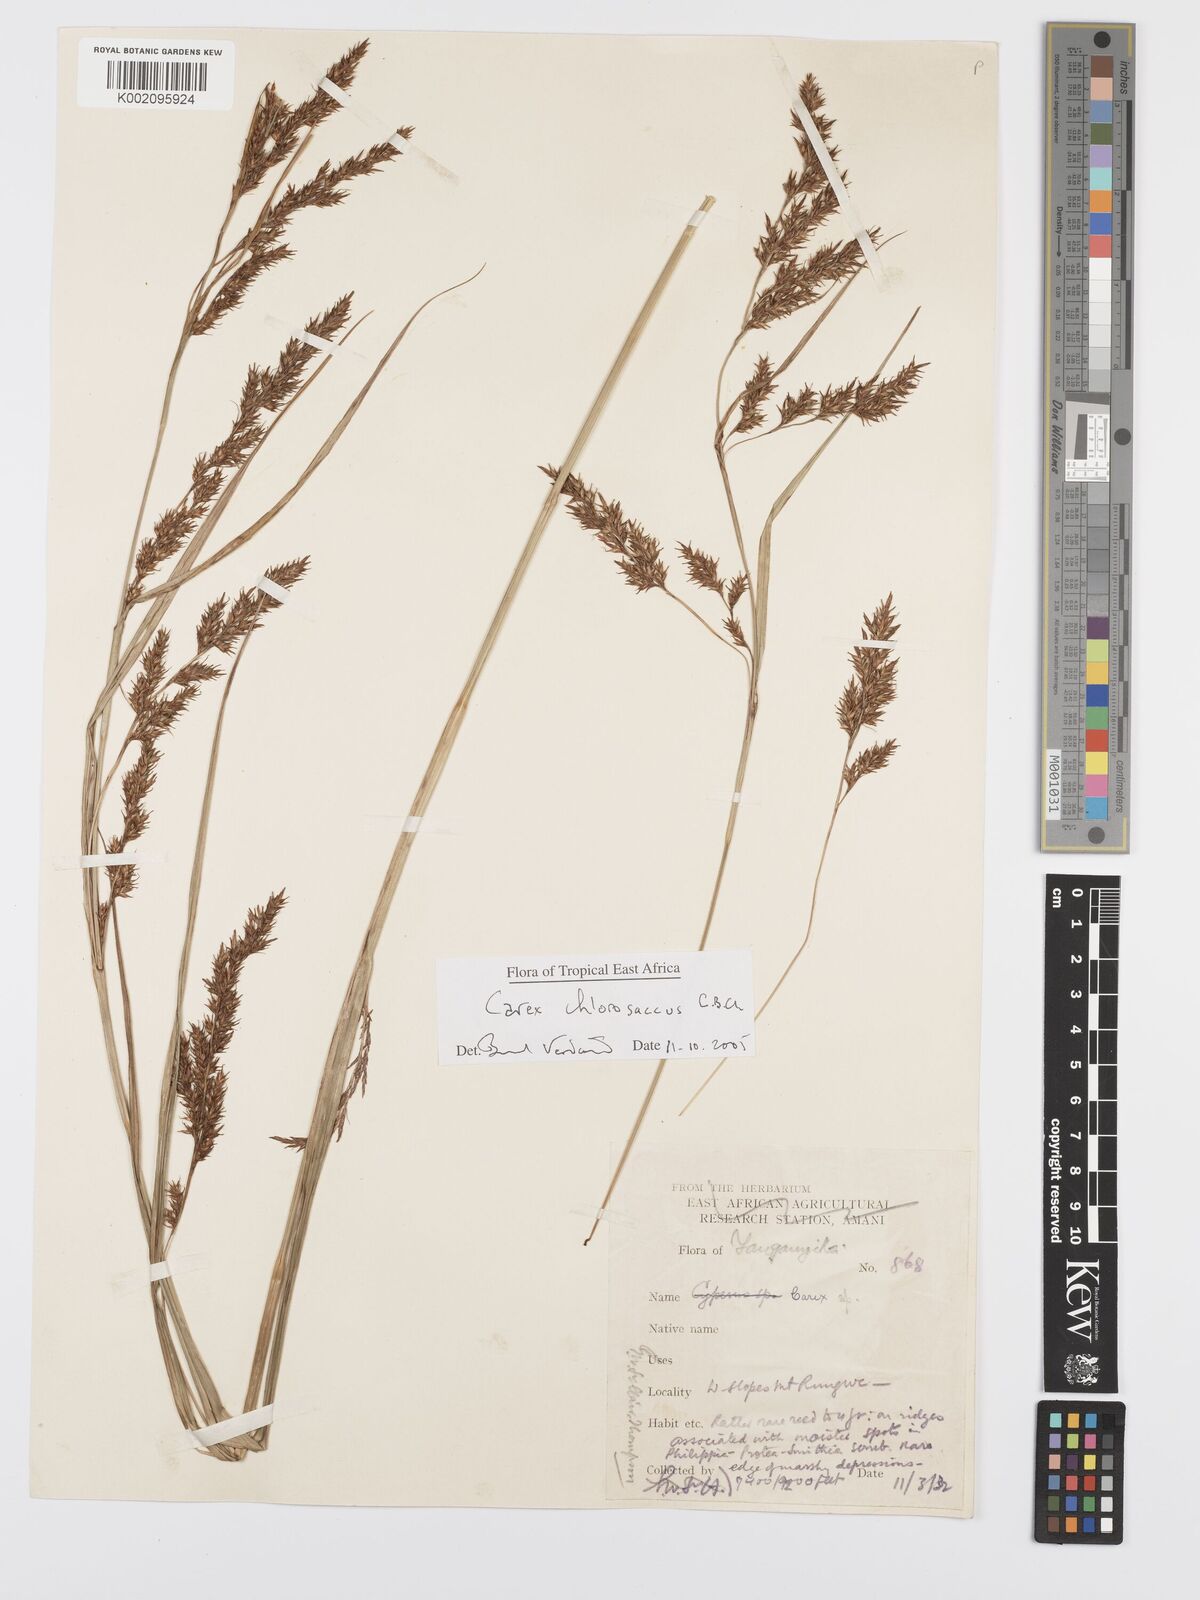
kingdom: Plantae
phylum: Tracheophyta
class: Liliopsida
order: Poales
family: Cyperaceae
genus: Carex
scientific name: Carex chlorosaccus
